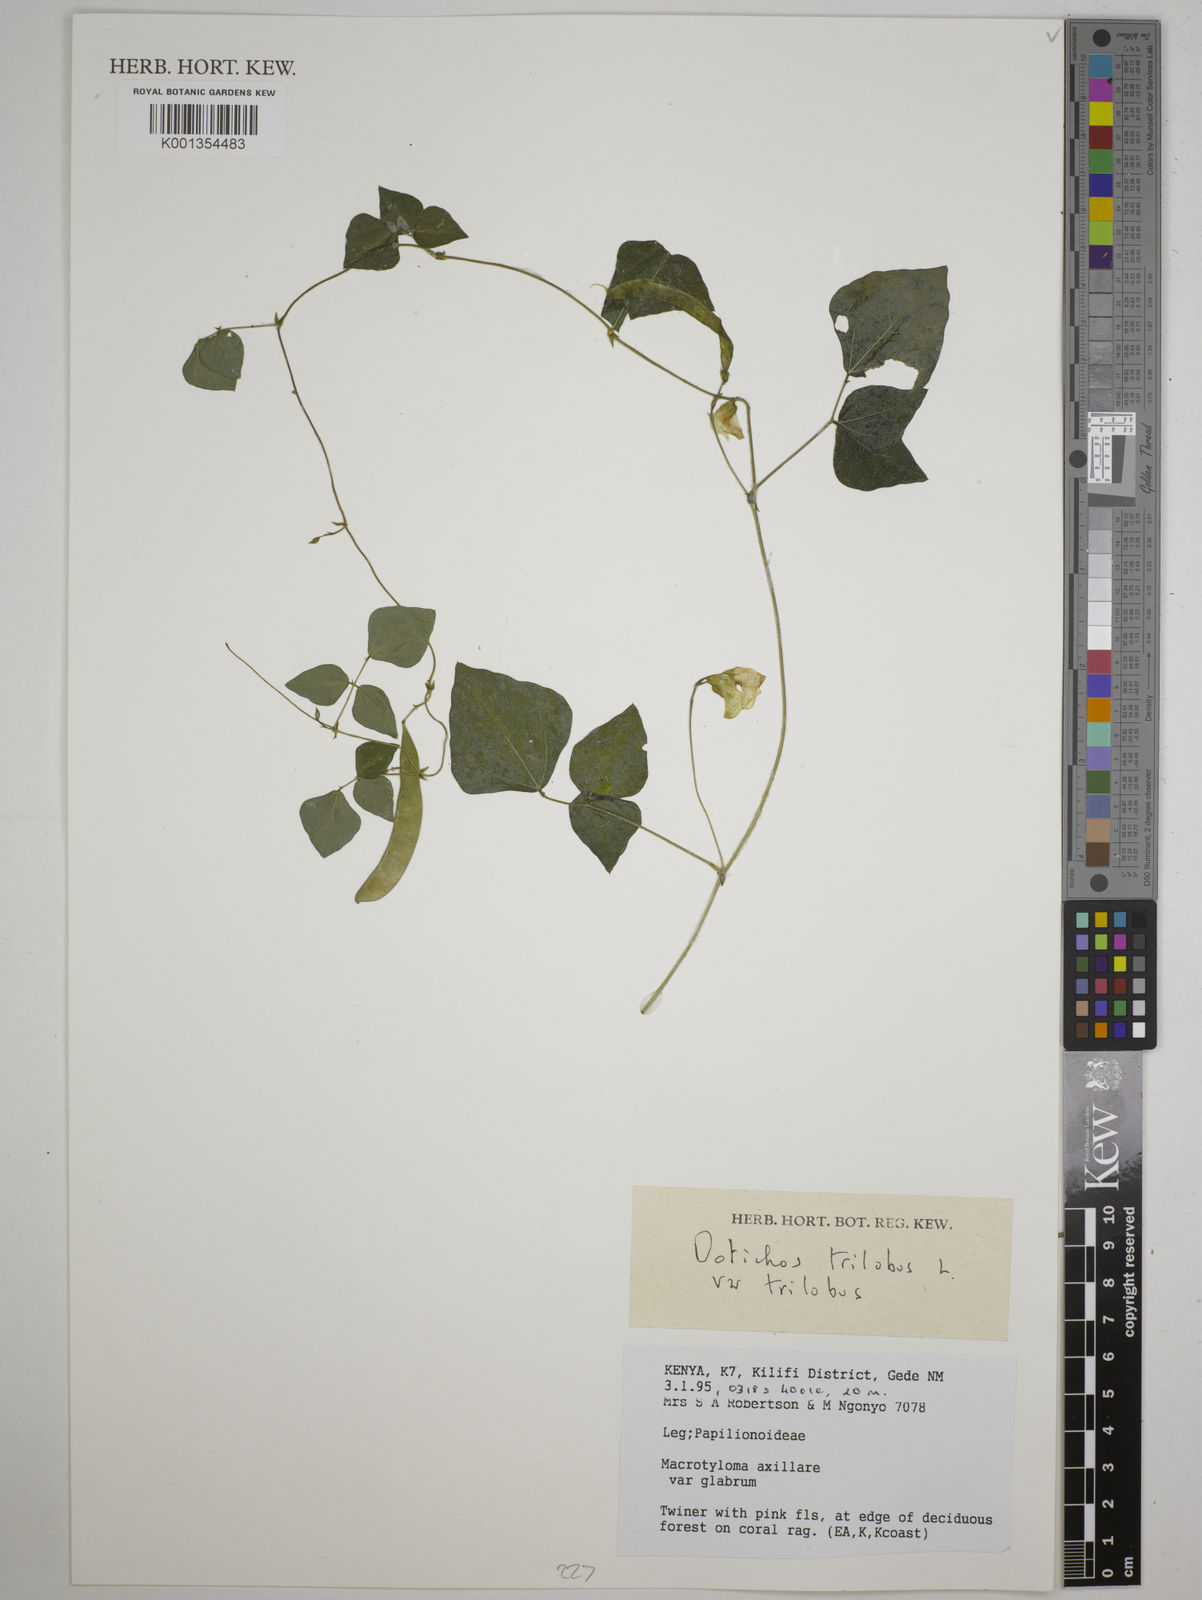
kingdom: Plantae
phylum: Tracheophyta
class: Magnoliopsida
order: Fabales
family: Fabaceae
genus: Dolichos
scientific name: Dolichos
